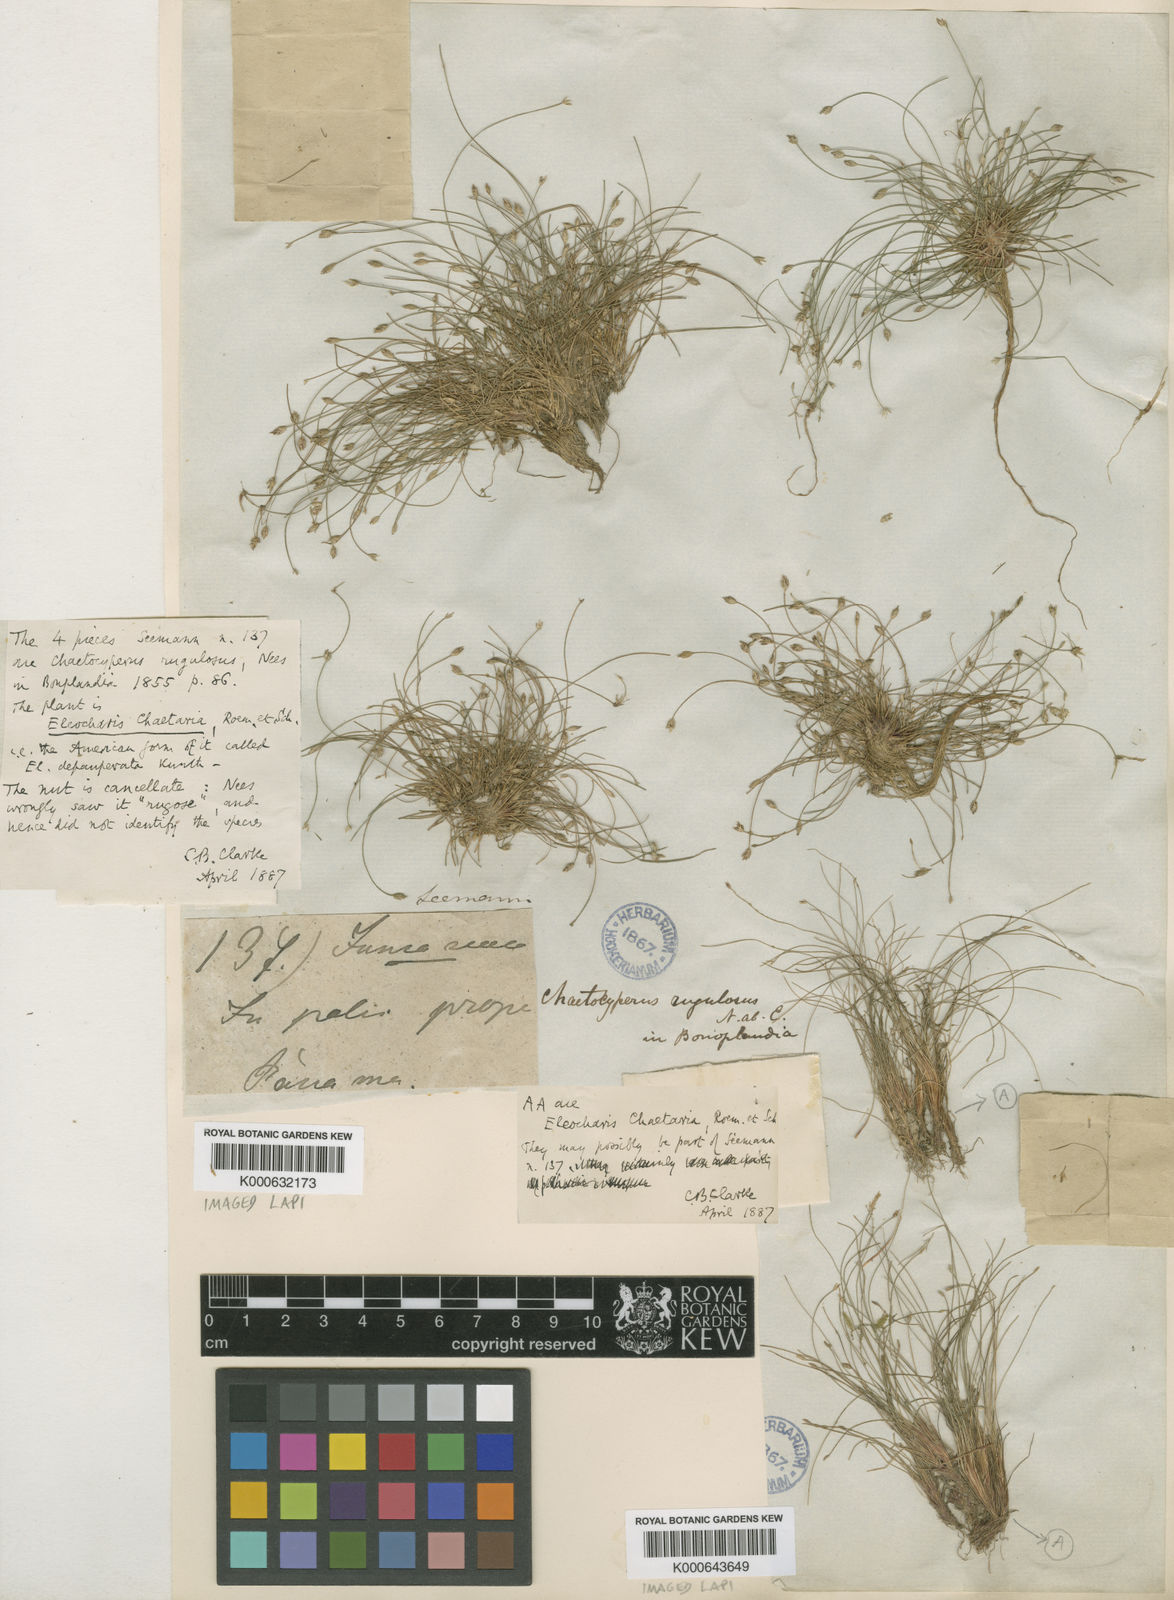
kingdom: Plantae
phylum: Tracheophyta
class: Liliopsida
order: Poales
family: Cyperaceae
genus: Eleocharis
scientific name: Eleocharis retroflexa
